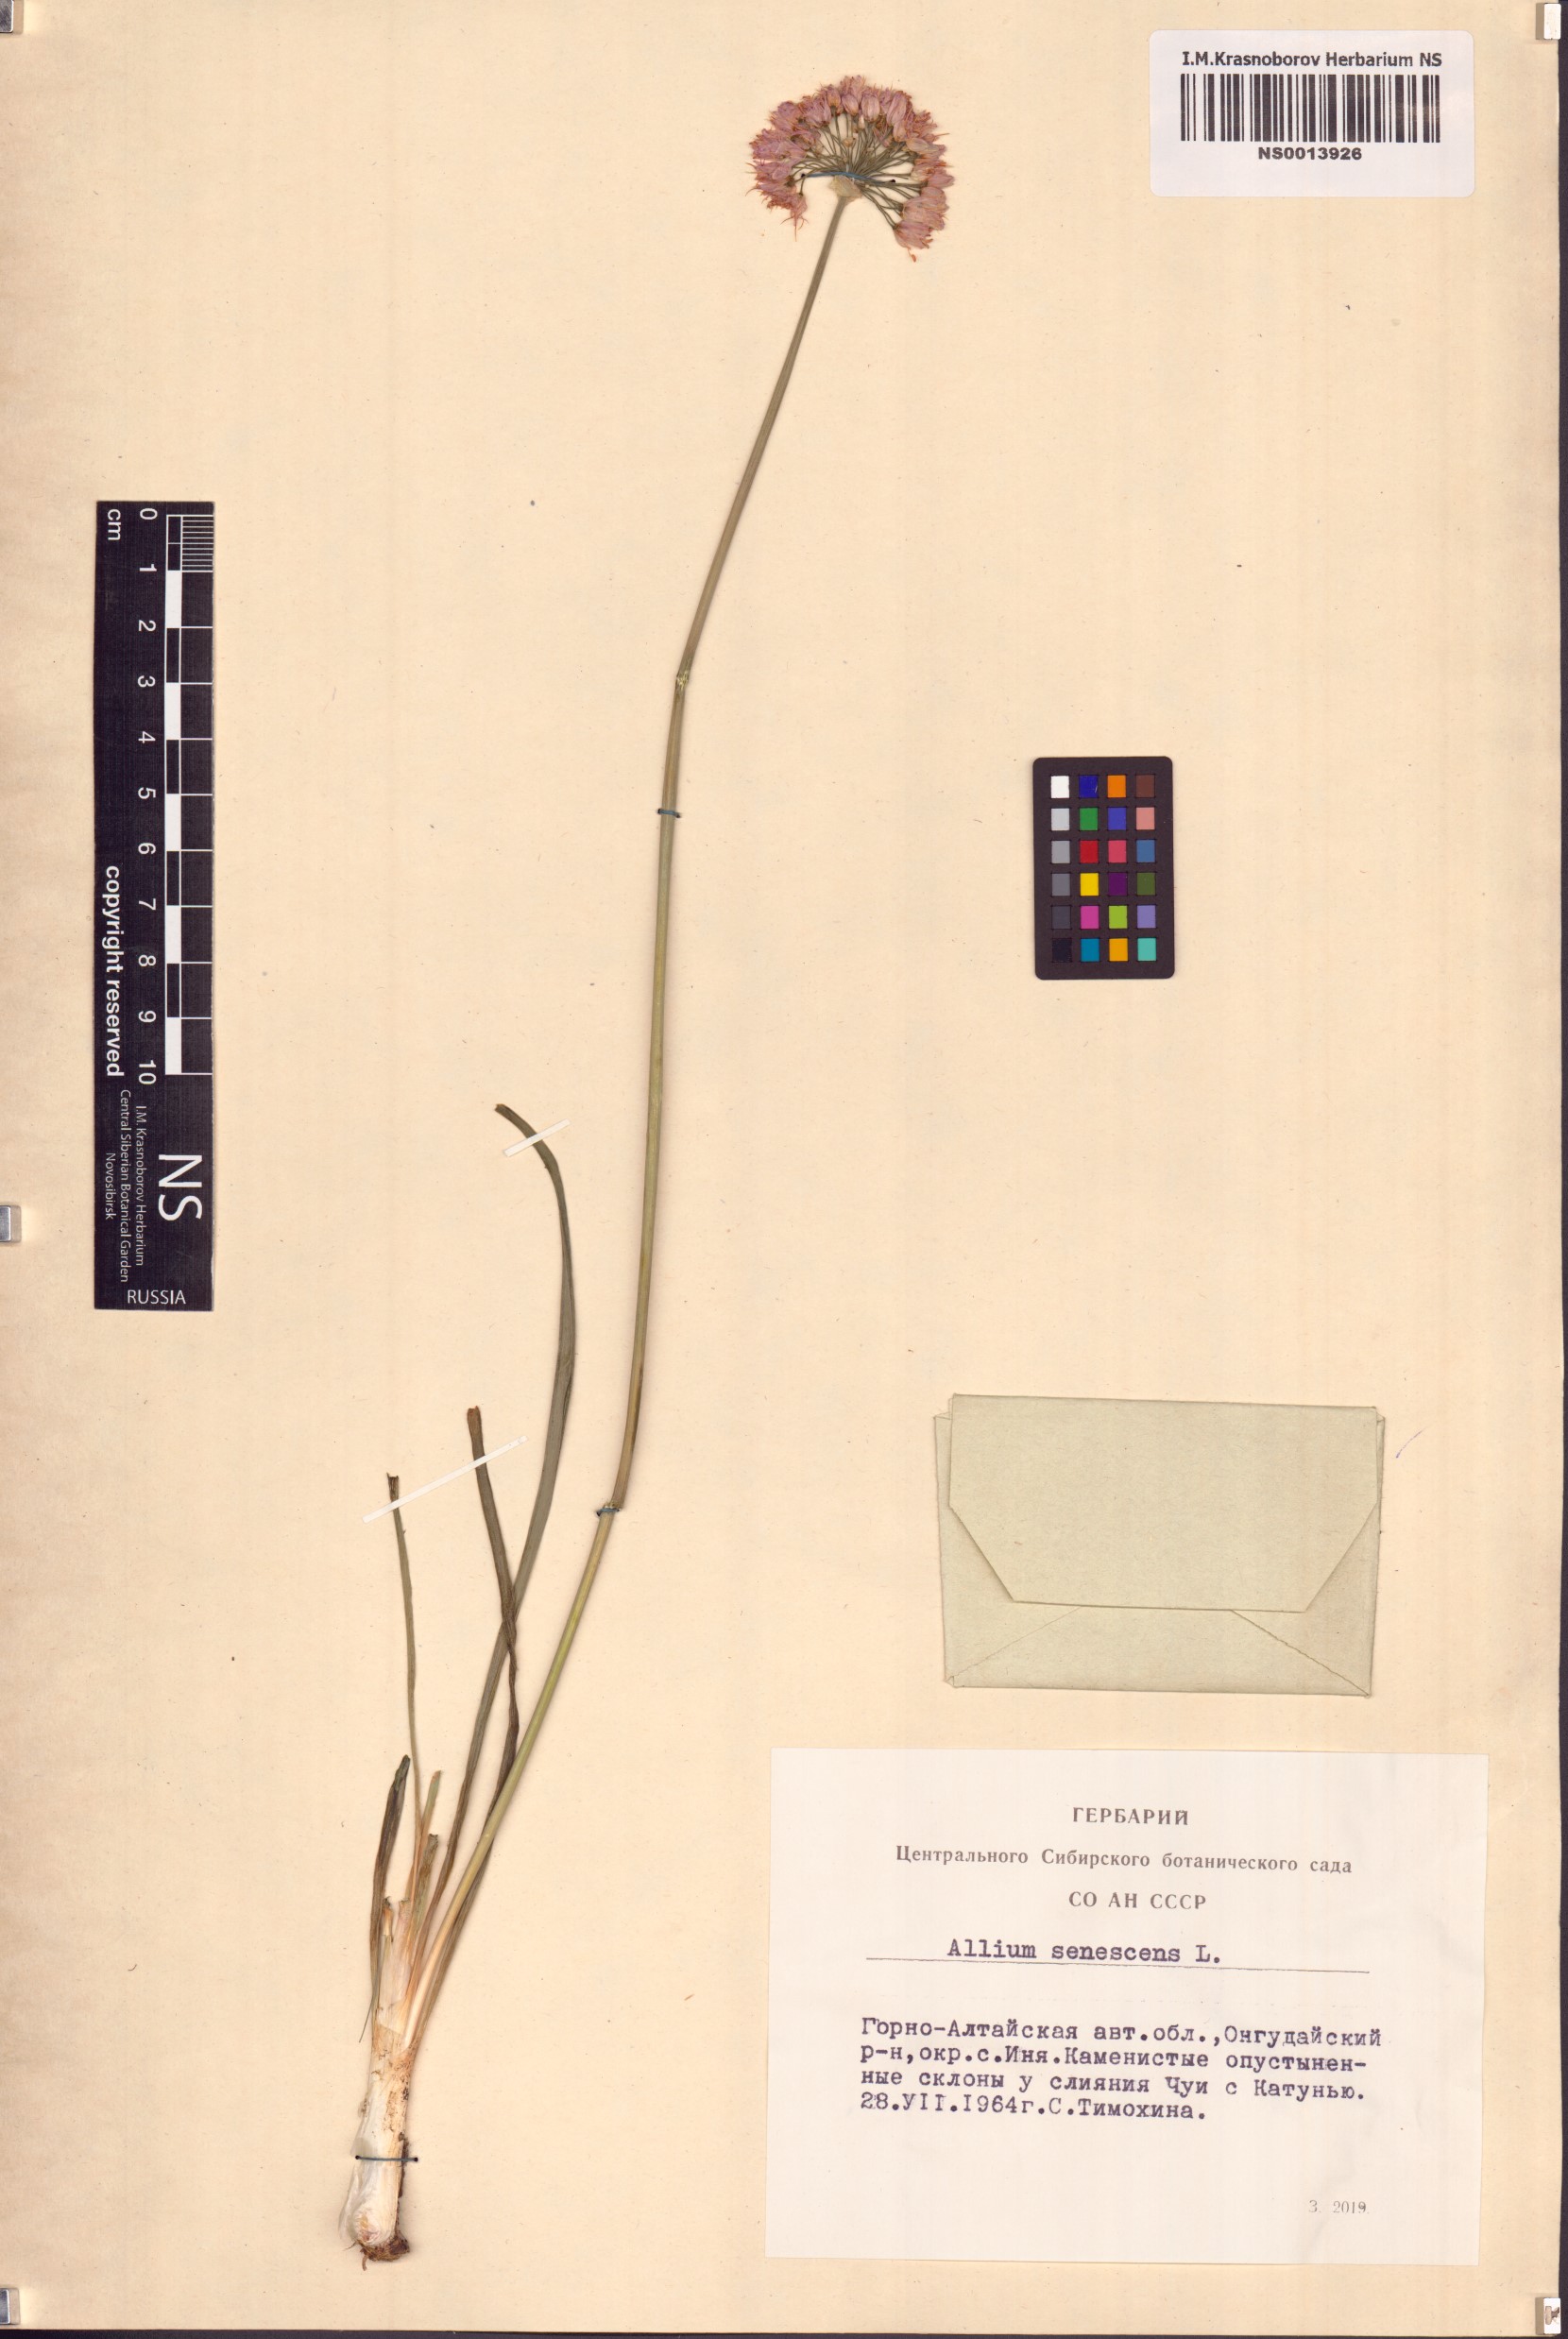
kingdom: Plantae
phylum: Tracheophyta
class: Liliopsida
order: Asparagales
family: Amaryllidaceae
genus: Allium
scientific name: Allium senescens
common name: German garlic
